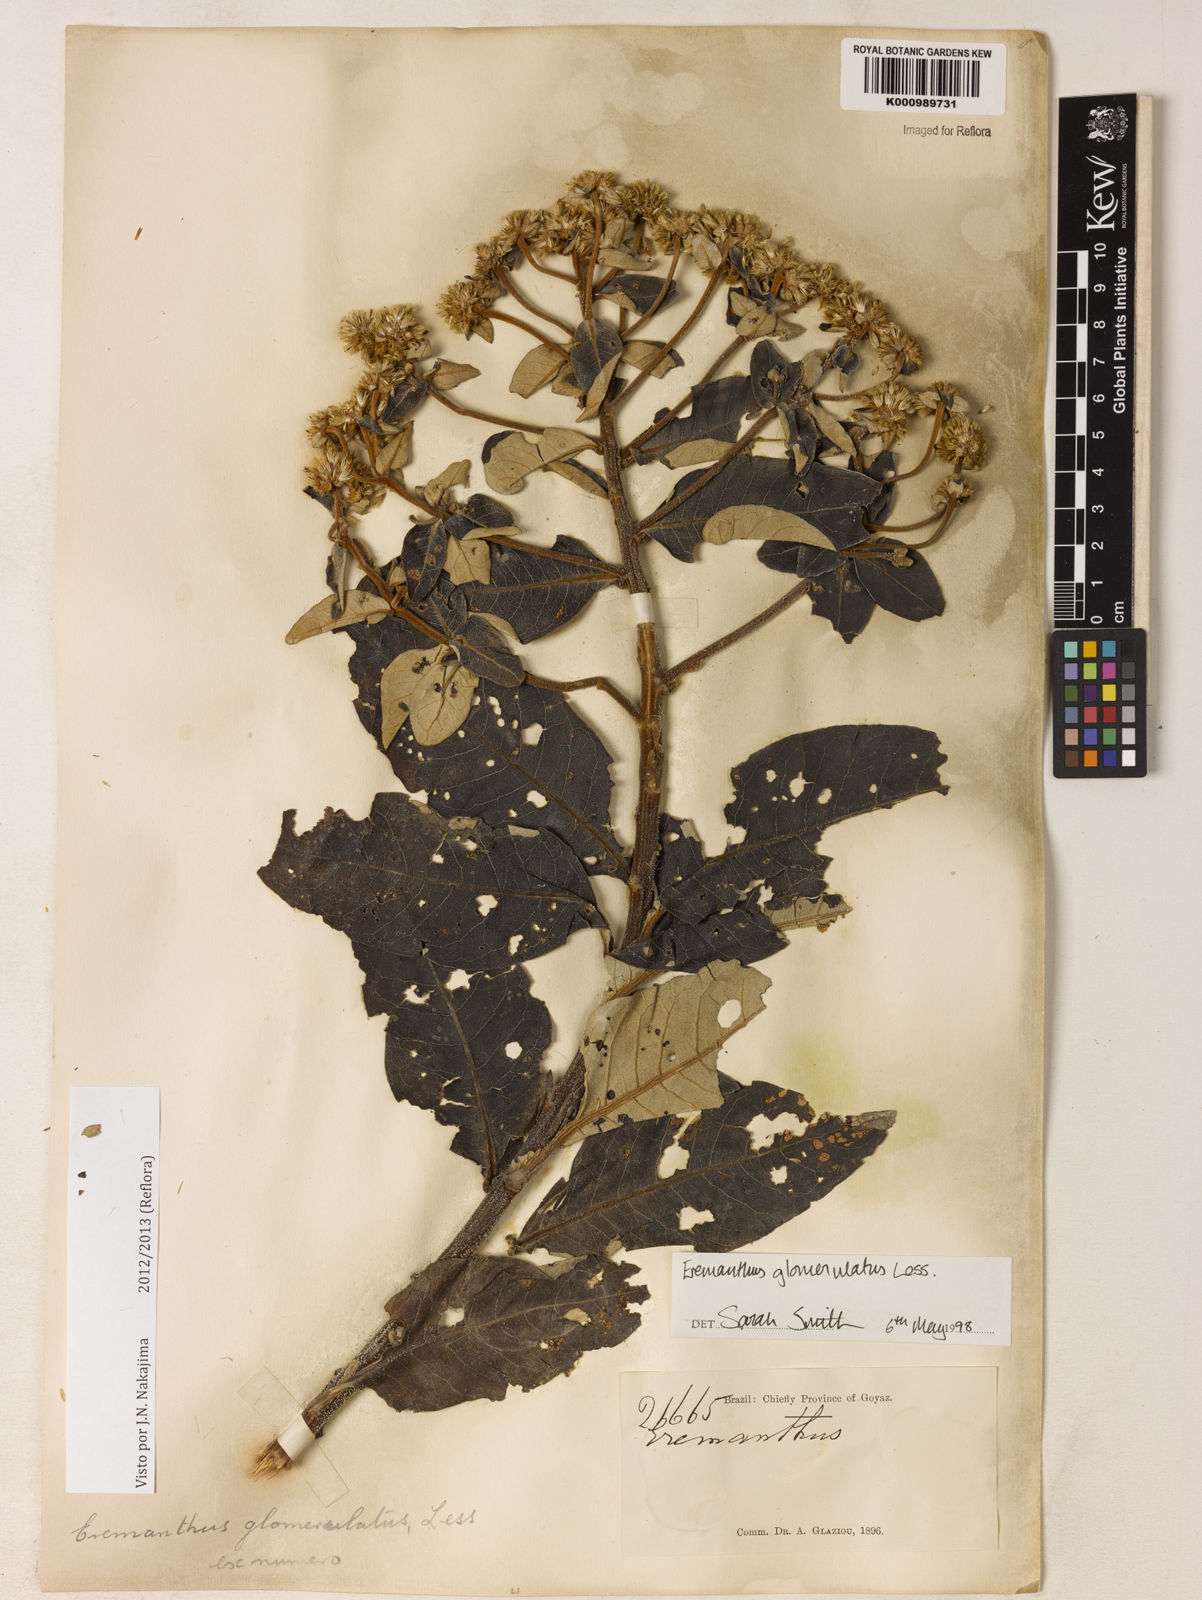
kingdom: Plantae
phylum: Tracheophyta
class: Magnoliopsida
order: Asterales
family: Asteraceae
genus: Eremanthus
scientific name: Eremanthus glomerulatus
